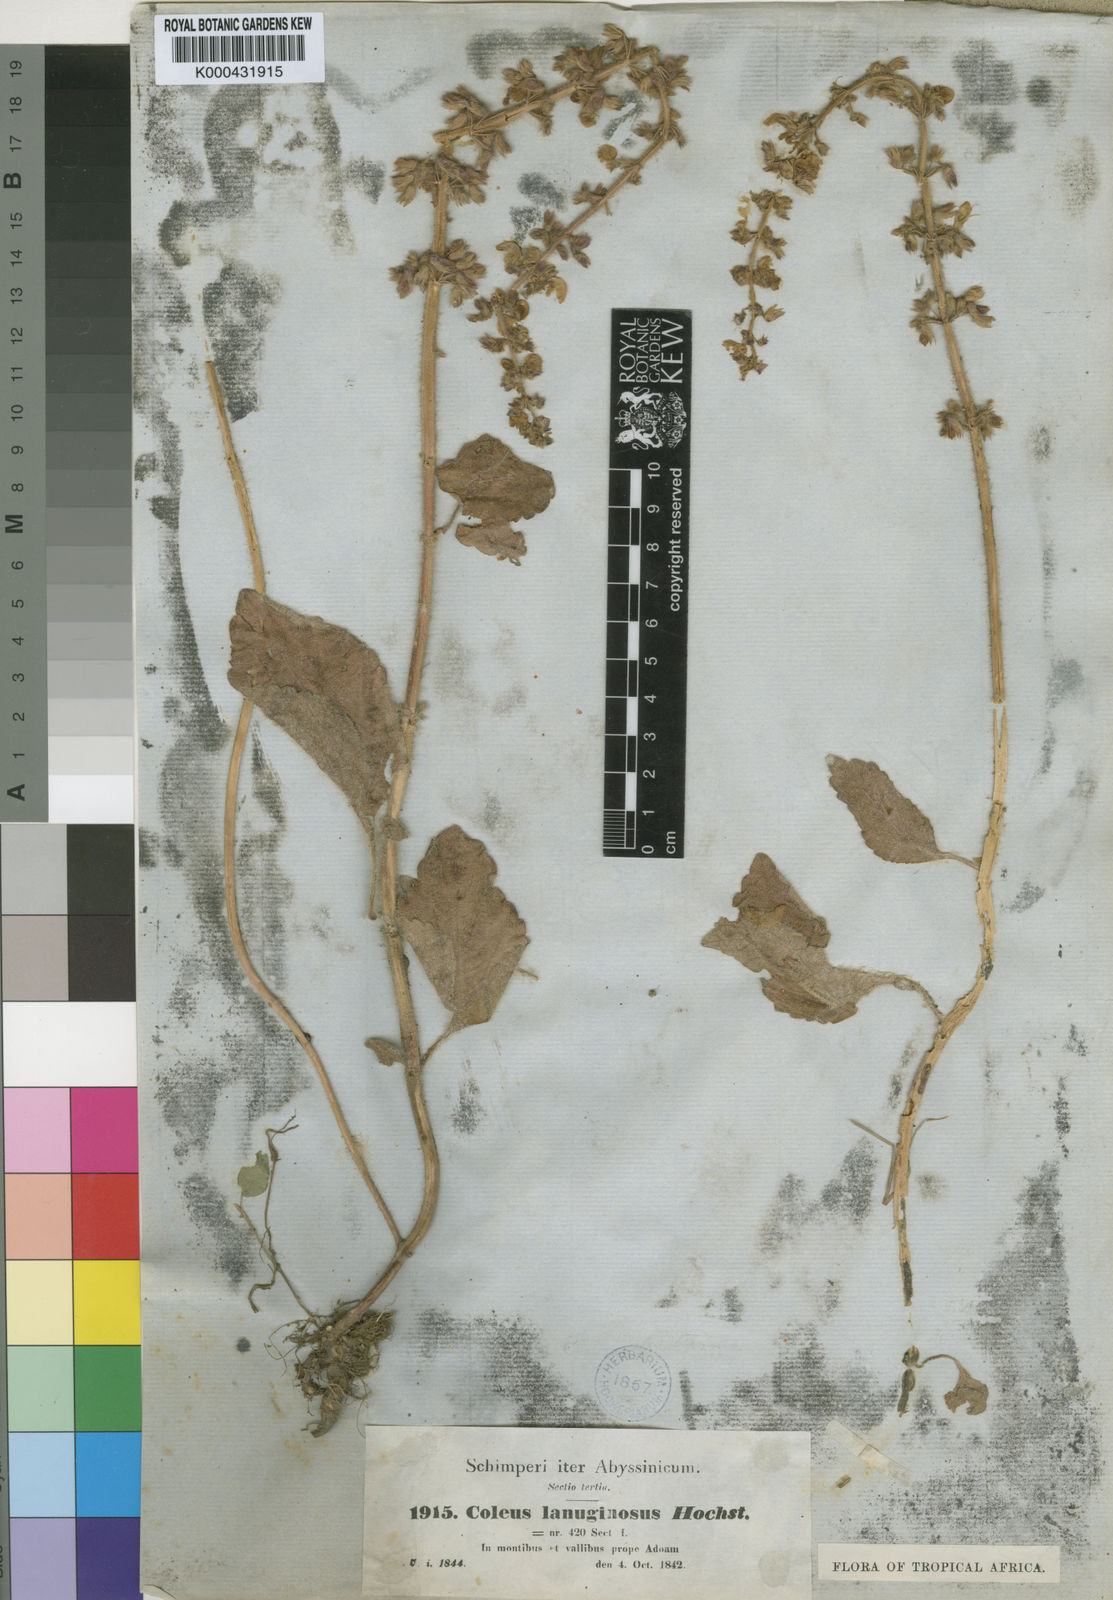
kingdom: Plantae
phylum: Tracheophyta
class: Magnoliopsida
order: Lamiales
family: Lamiaceae
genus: Coleus
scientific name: Coleus lanuginosus
